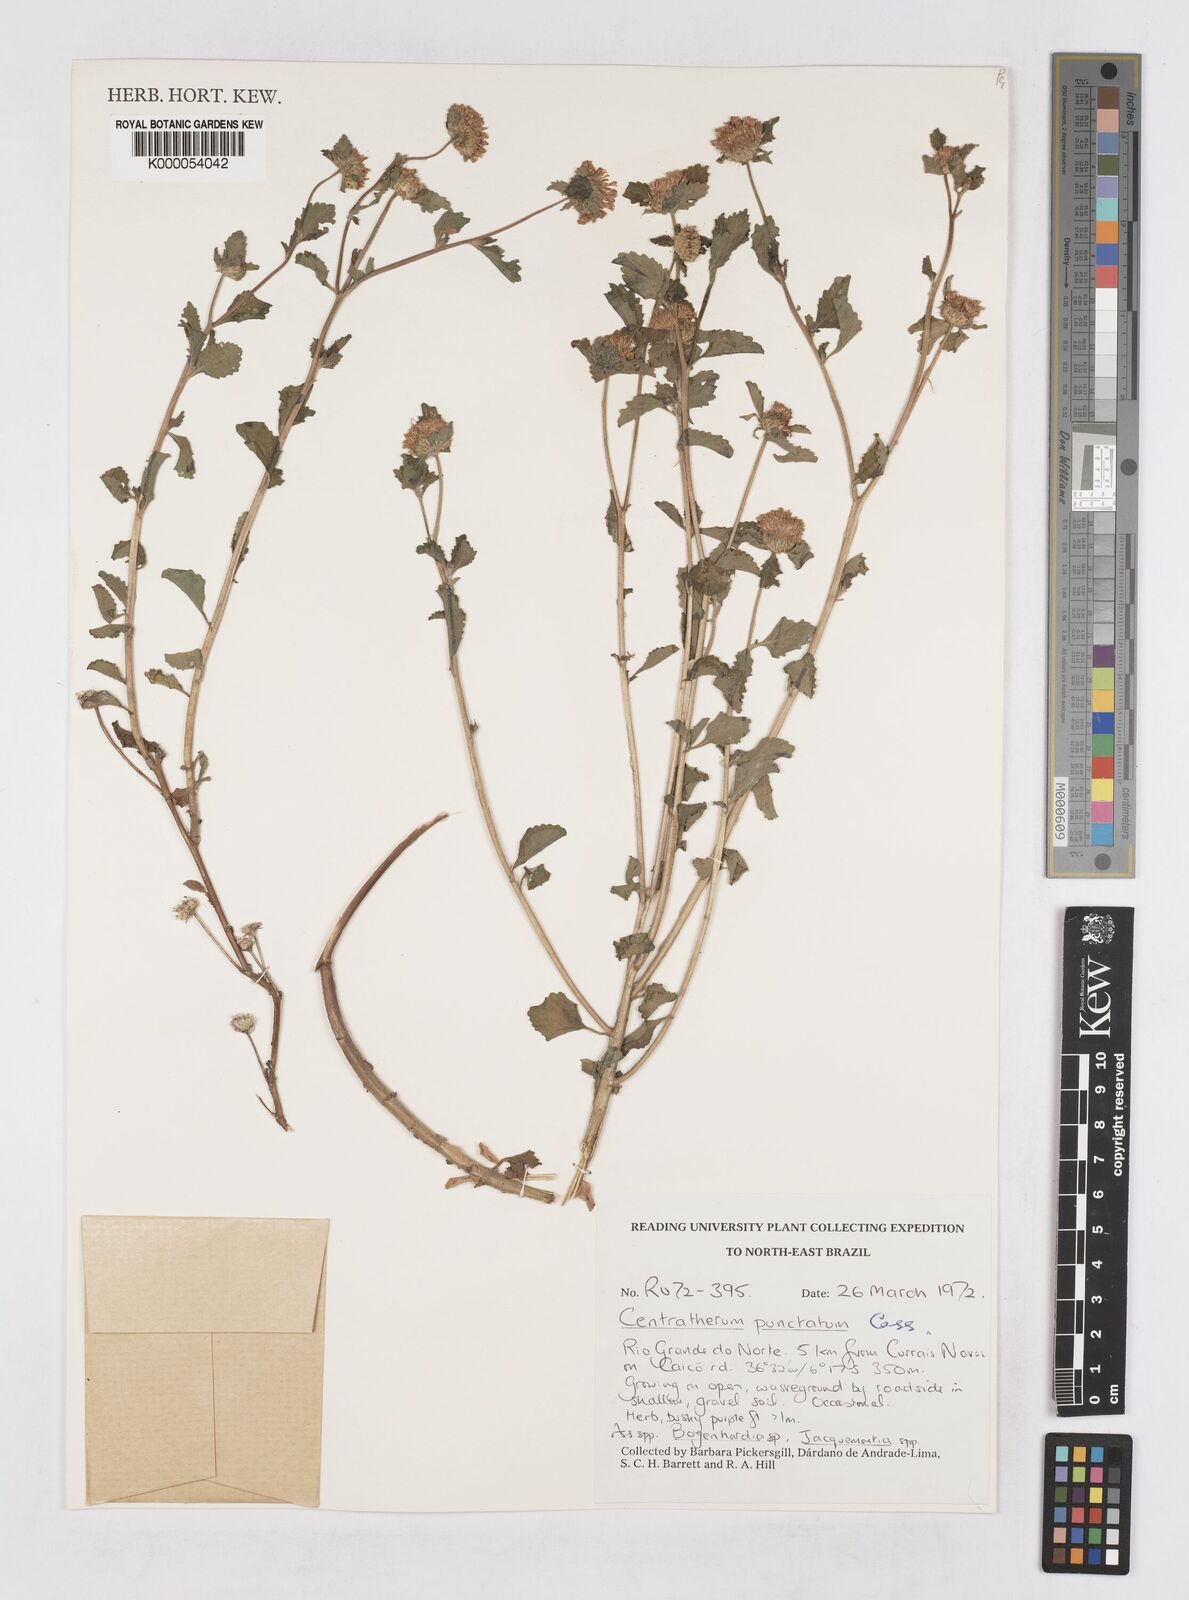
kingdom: Plantae
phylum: Tracheophyta
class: Magnoliopsida
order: Asterales
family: Asteraceae
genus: Centratherum
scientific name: Centratherum punctatum
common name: Larkdaisy
